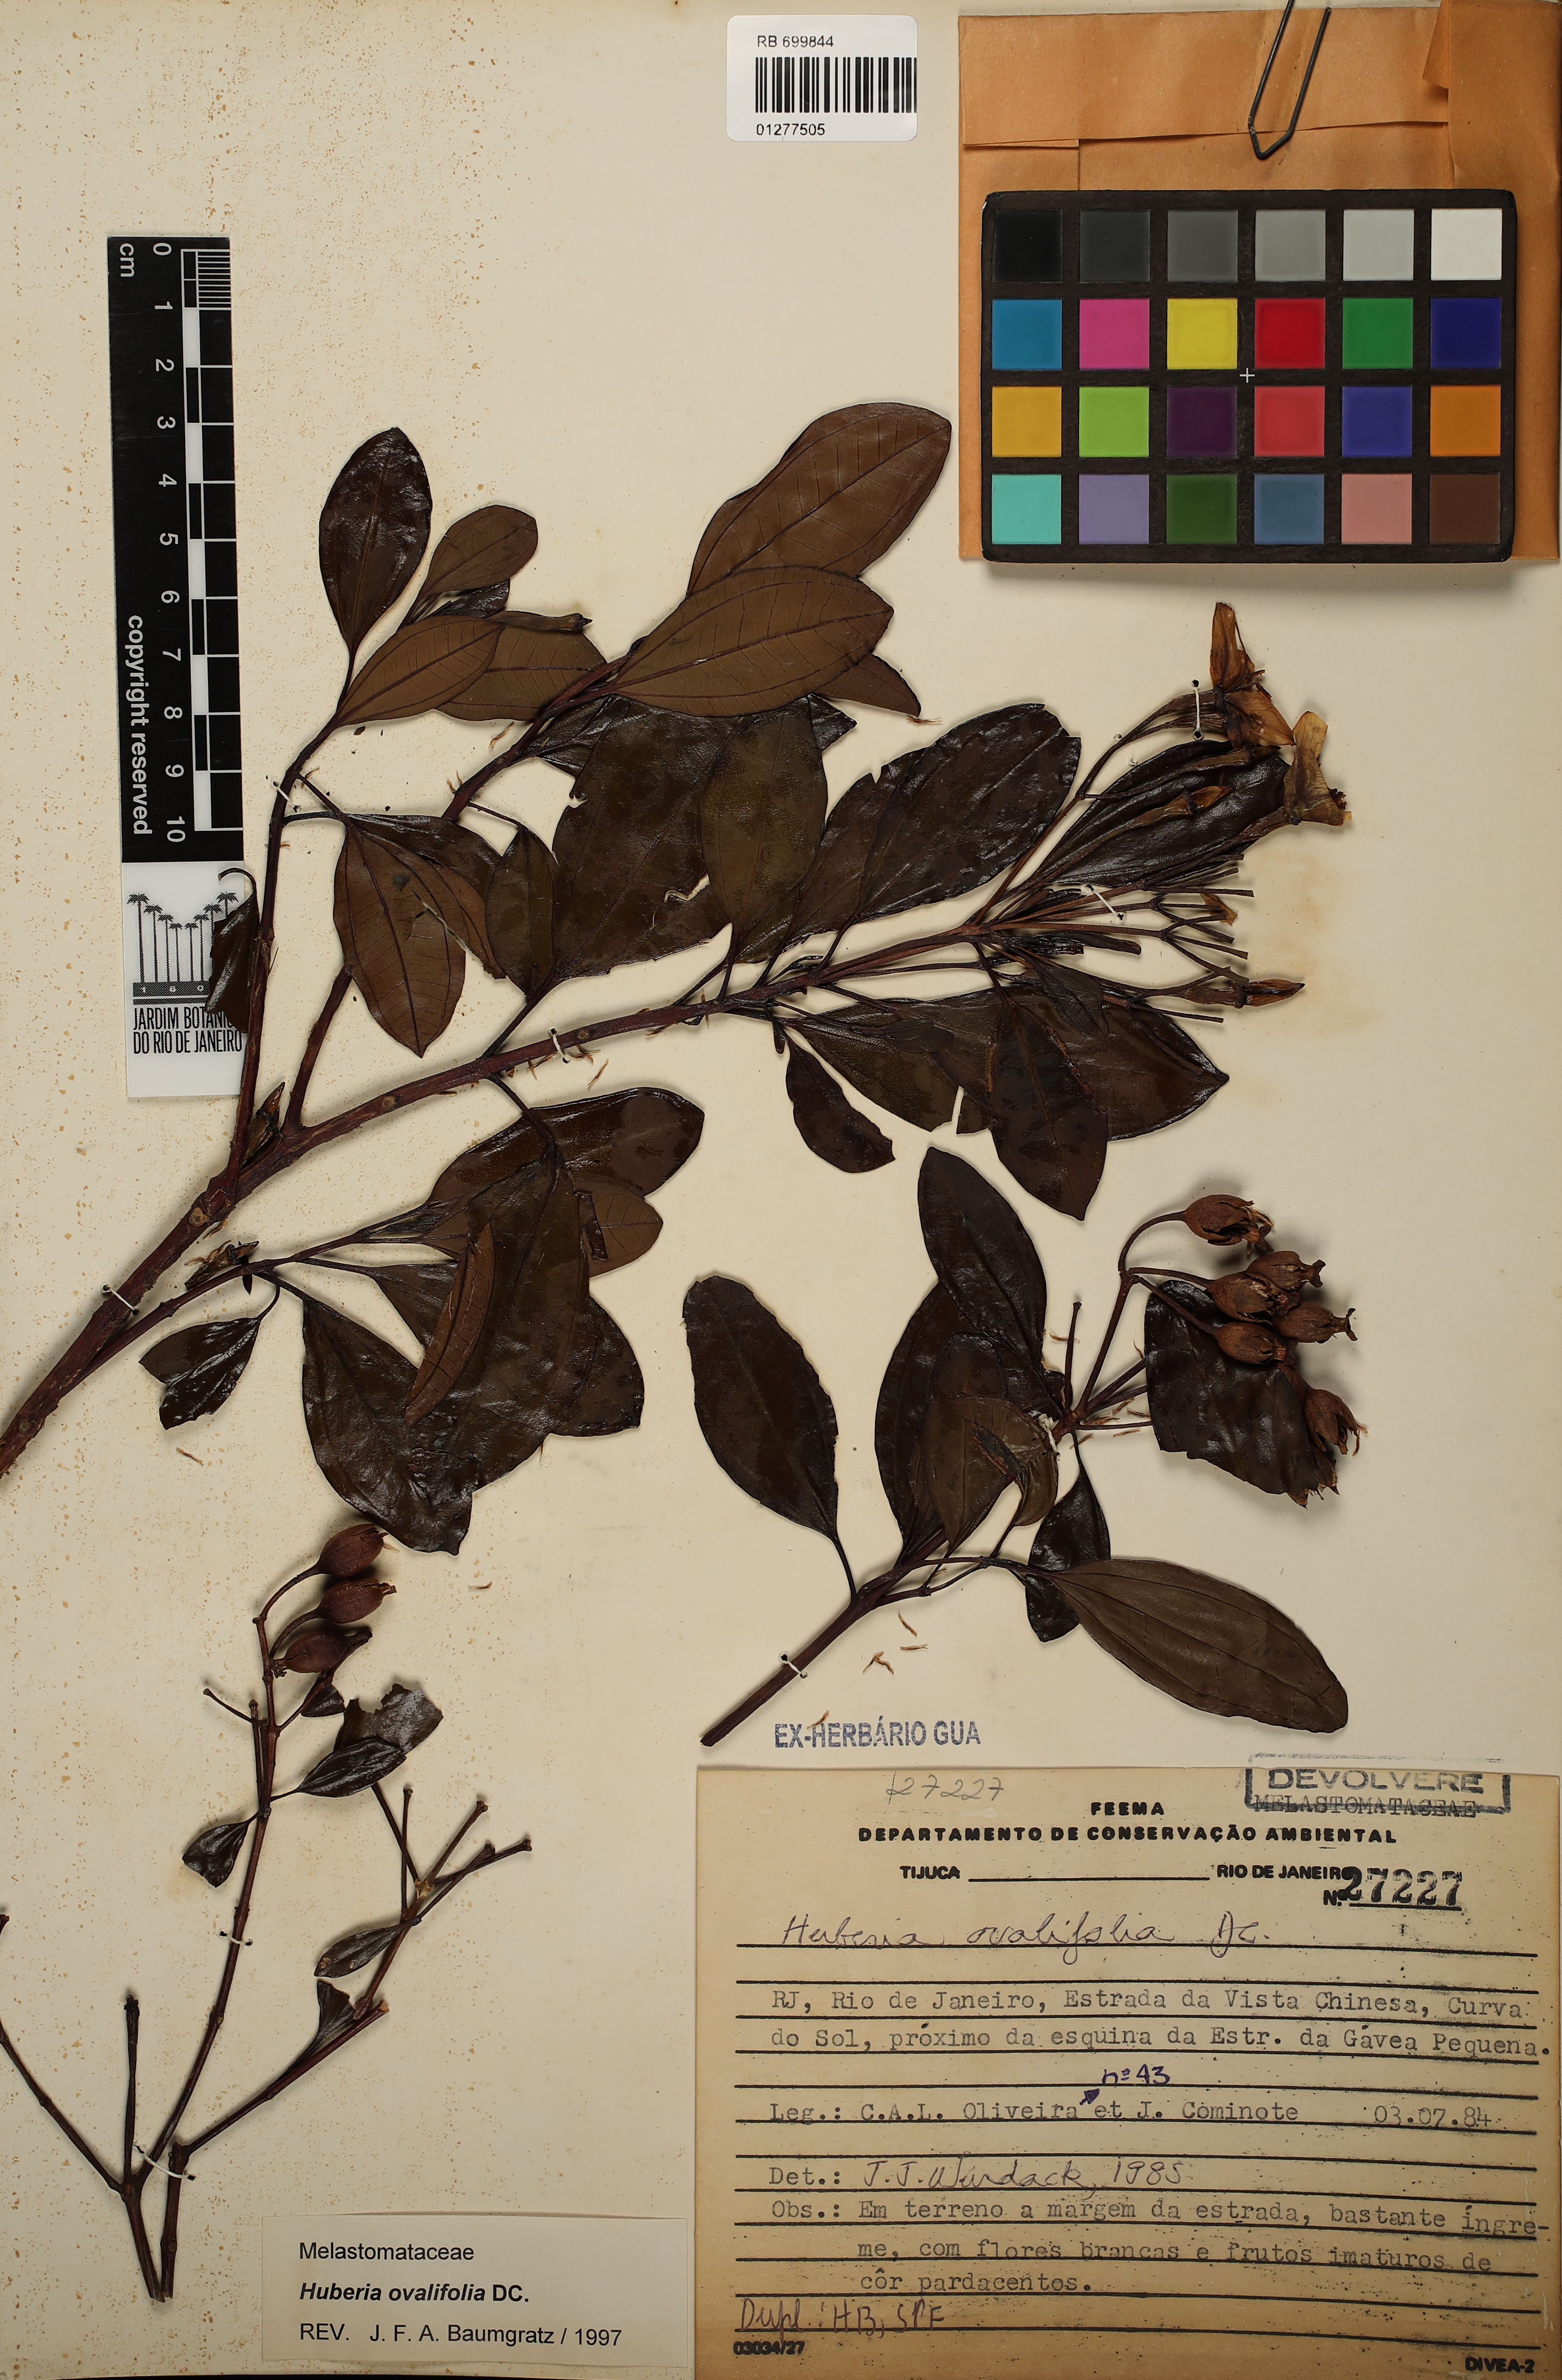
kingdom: Plantae
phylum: Tracheophyta
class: Magnoliopsida
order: Myrtales
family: Melastomataceae
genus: Huberia
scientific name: Huberia ovalifolia
